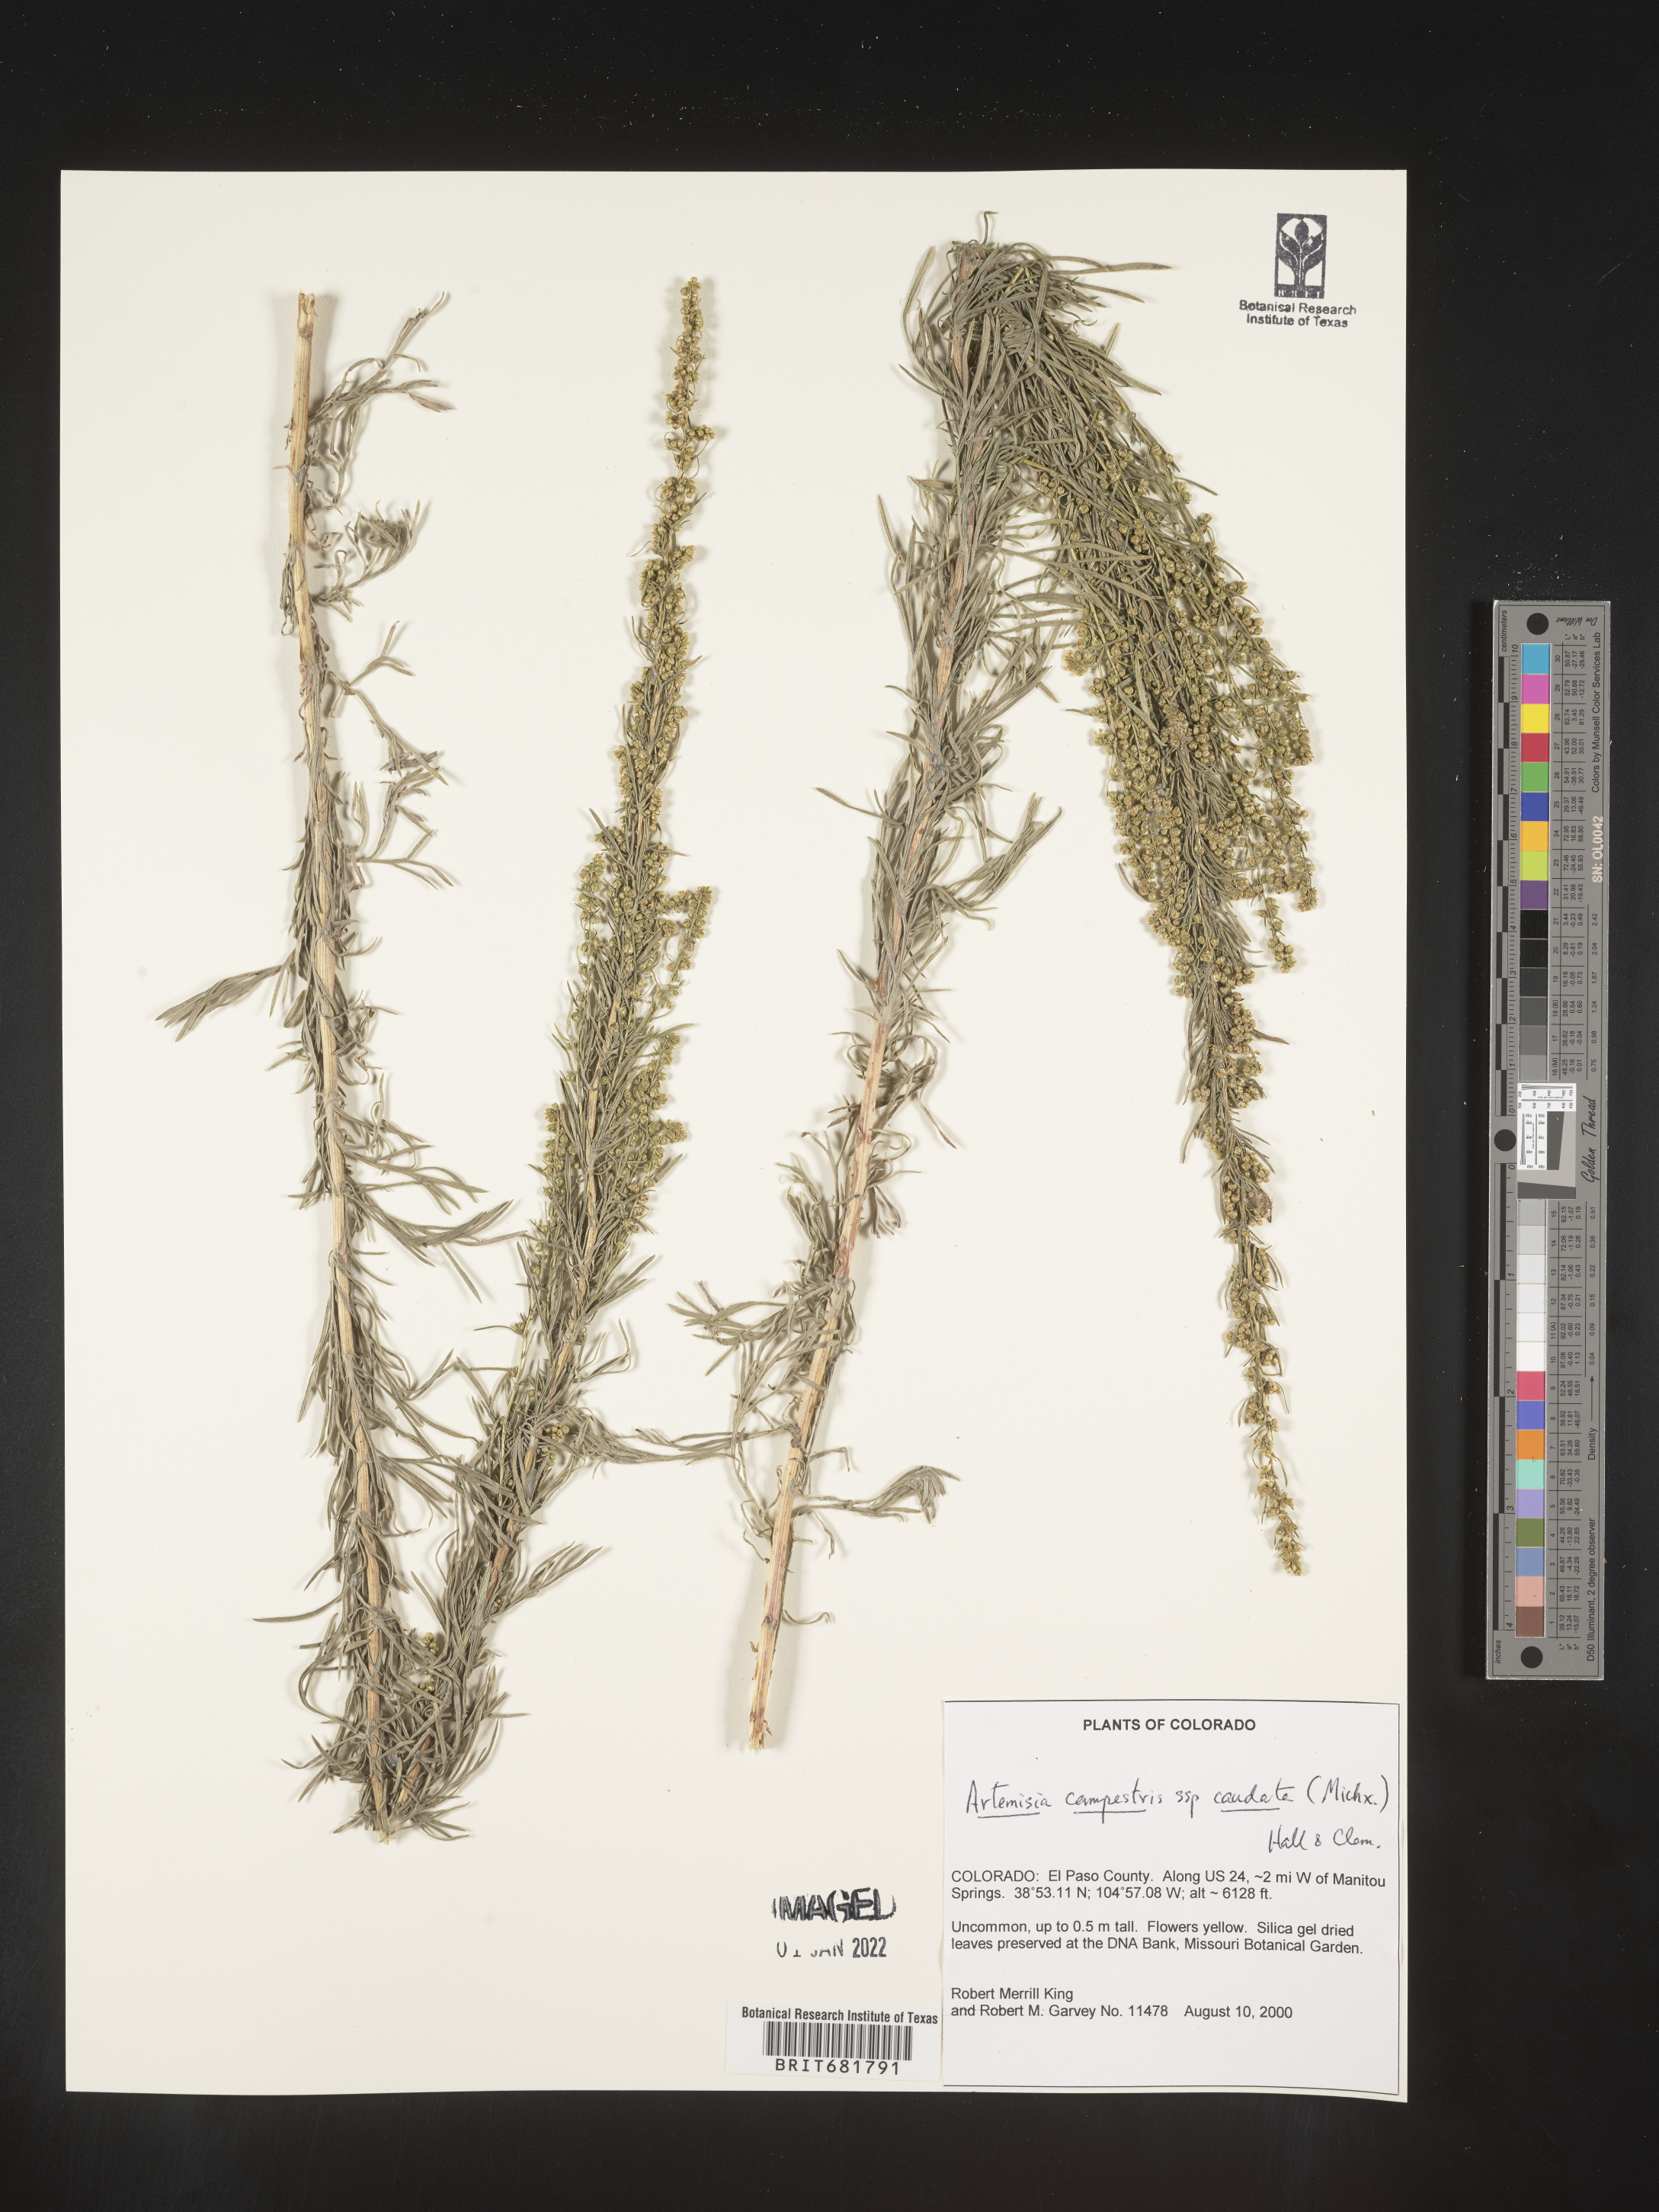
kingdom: Plantae
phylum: Tracheophyta
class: Magnoliopsida
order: Asterales
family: Asteraceae
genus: Artemisia
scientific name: Artemisia campestris
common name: Field wormwood
